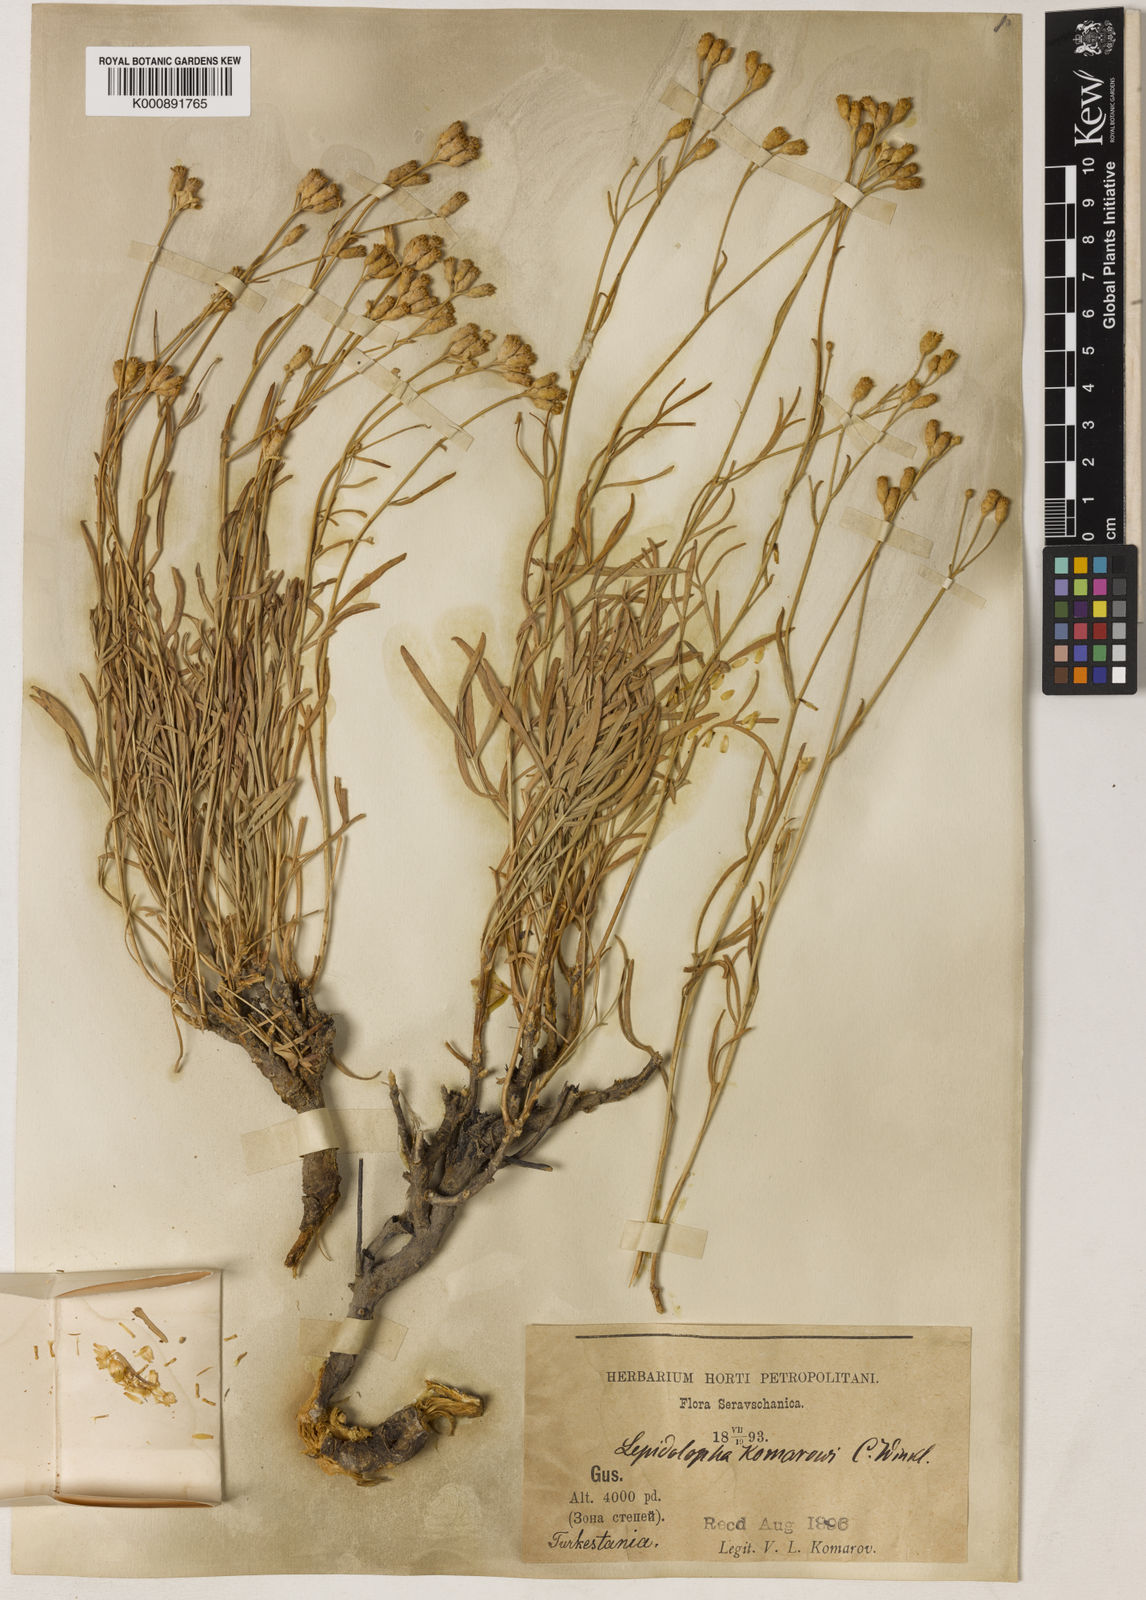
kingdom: Plantae
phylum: Tracheophyta
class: Magnoliopsida
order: Asterales
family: Asteraceae
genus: Lepidolopha
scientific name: Lepidolopha komarowii
